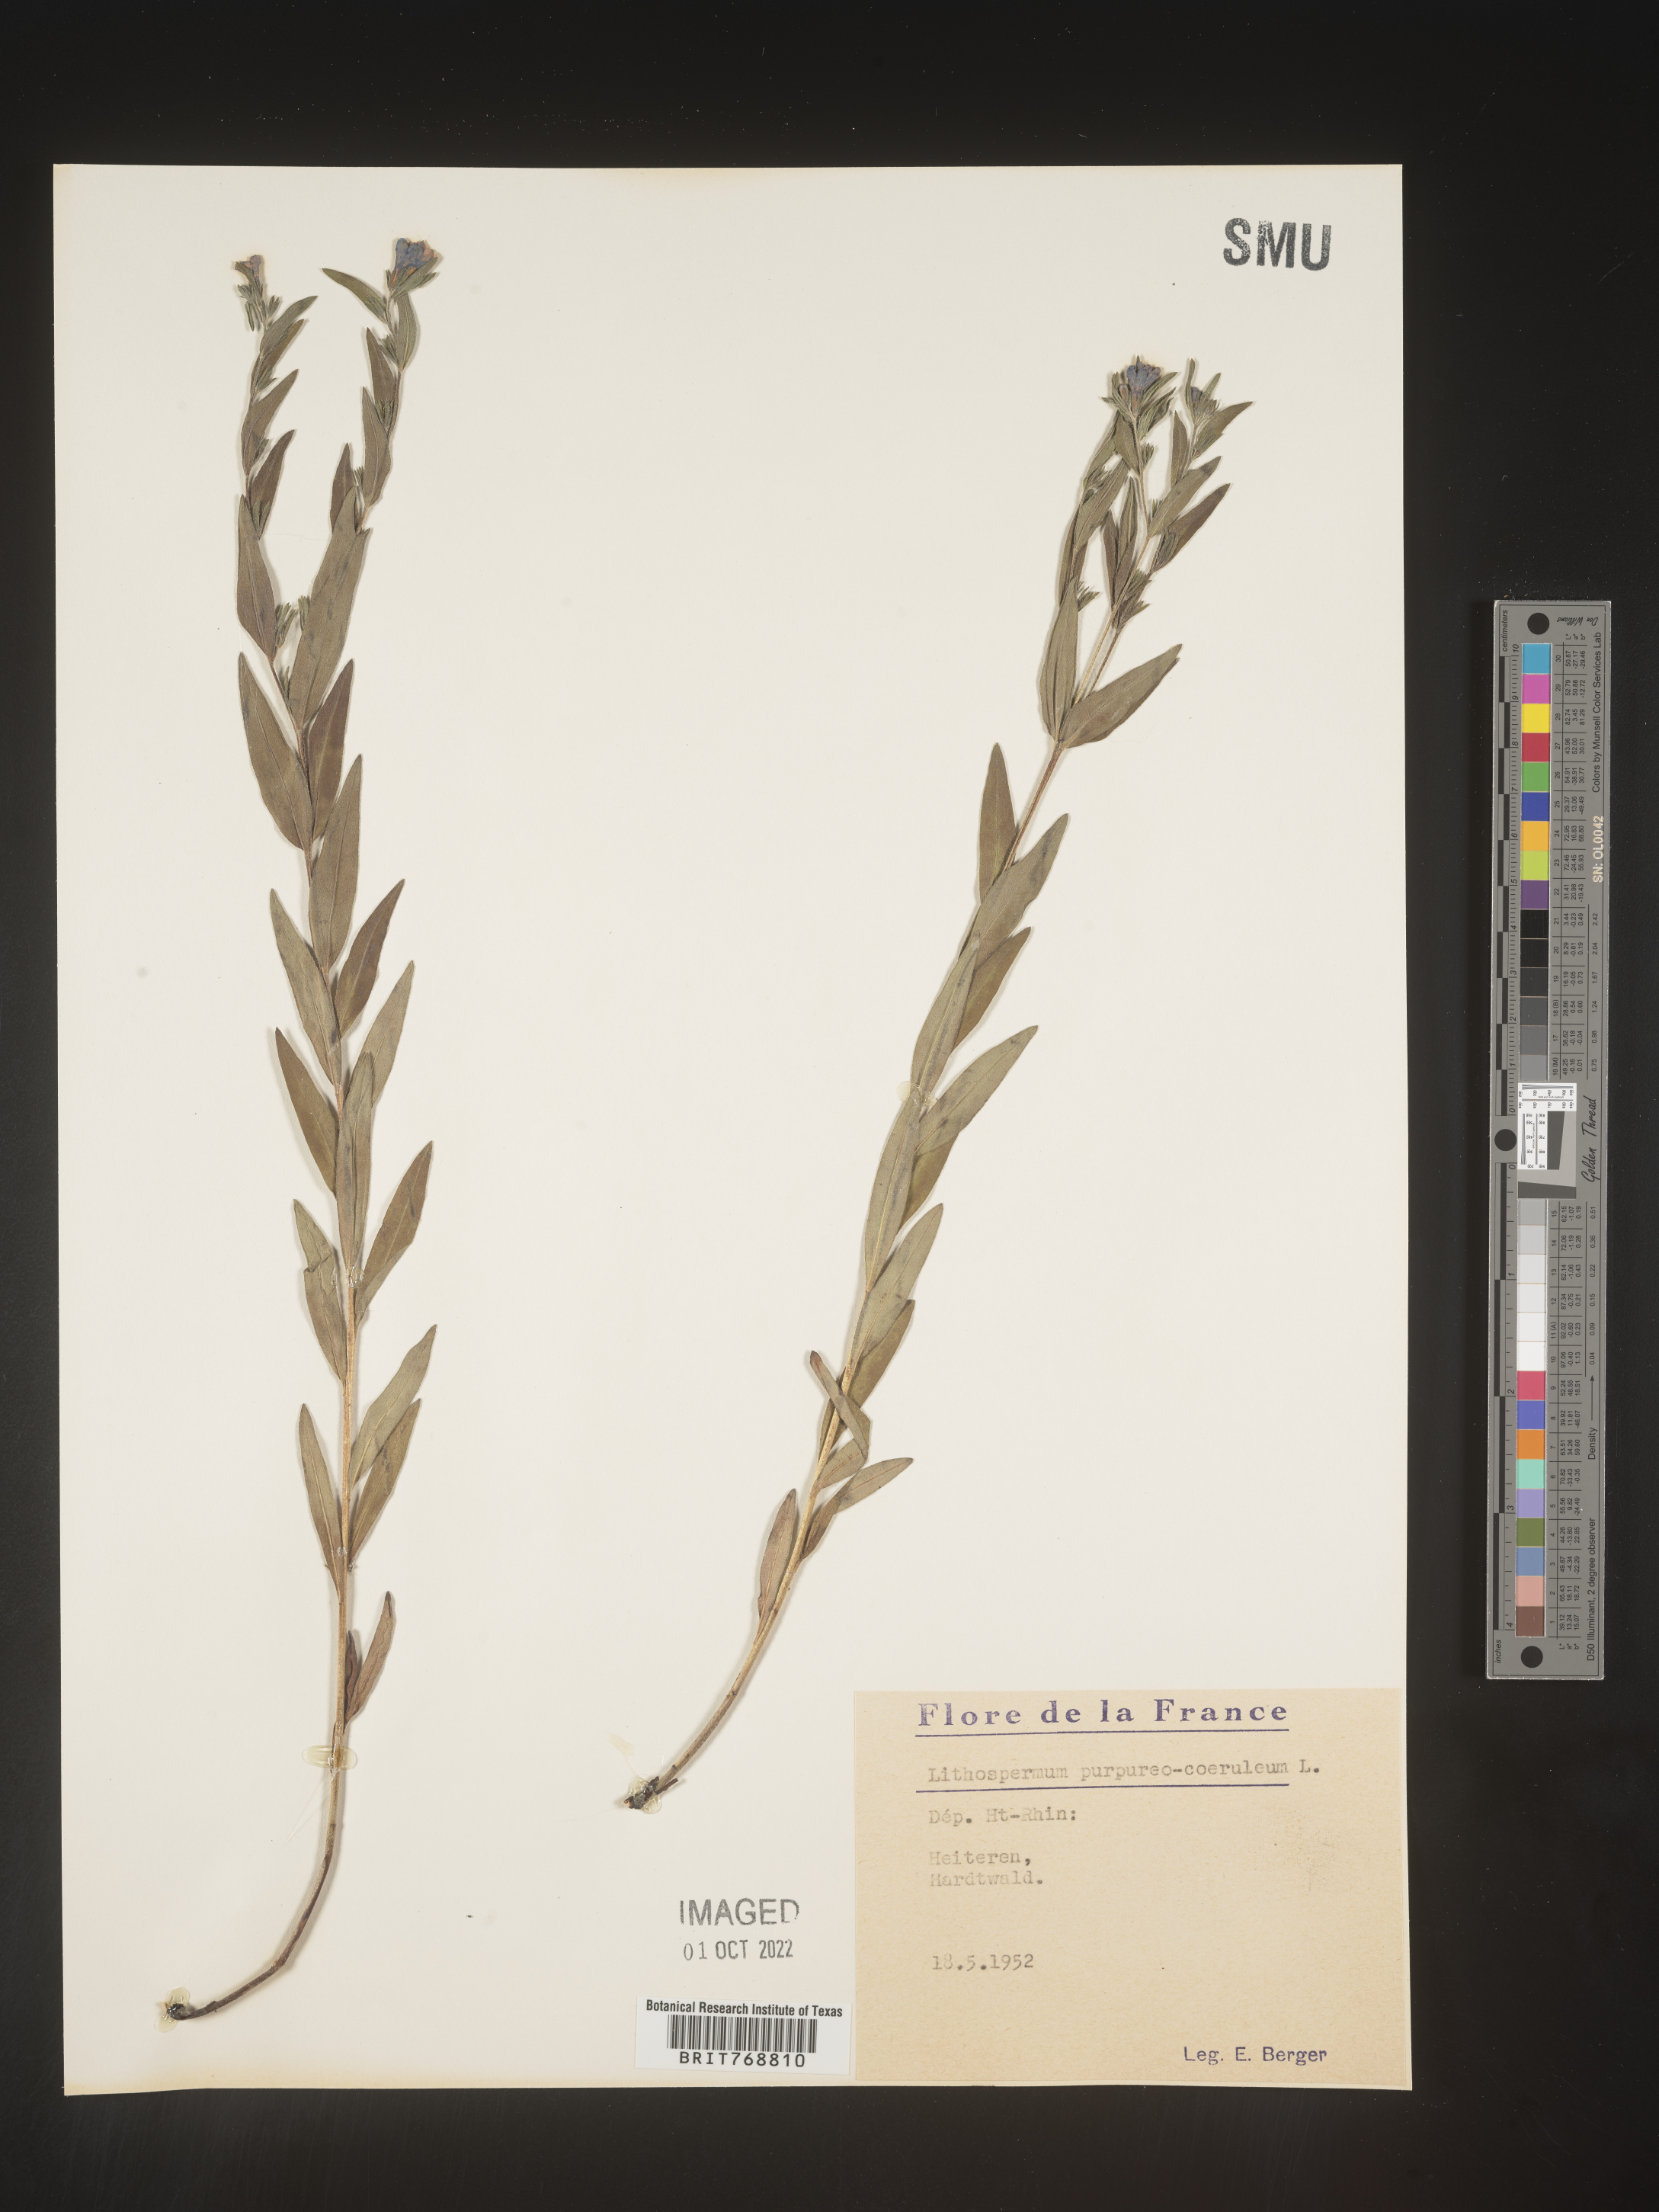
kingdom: Plantae
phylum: Tracheophyta
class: Magnoliopsida
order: Boraginales
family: Boraginaceae
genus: Lithospermum
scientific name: Lithospermum
